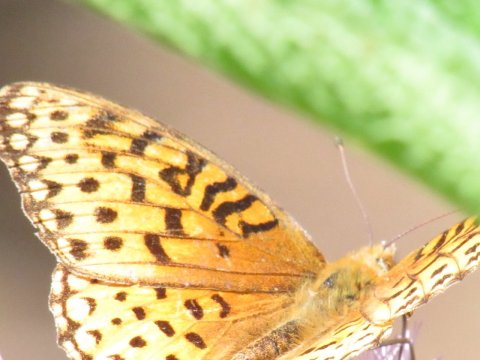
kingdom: Animalia
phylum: Arthropoda
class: Insecta
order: Lepidoptera
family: Nymphalidae
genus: Speyeria
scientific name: Speyeria aphrodite
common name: Aphrodite Fritillary
